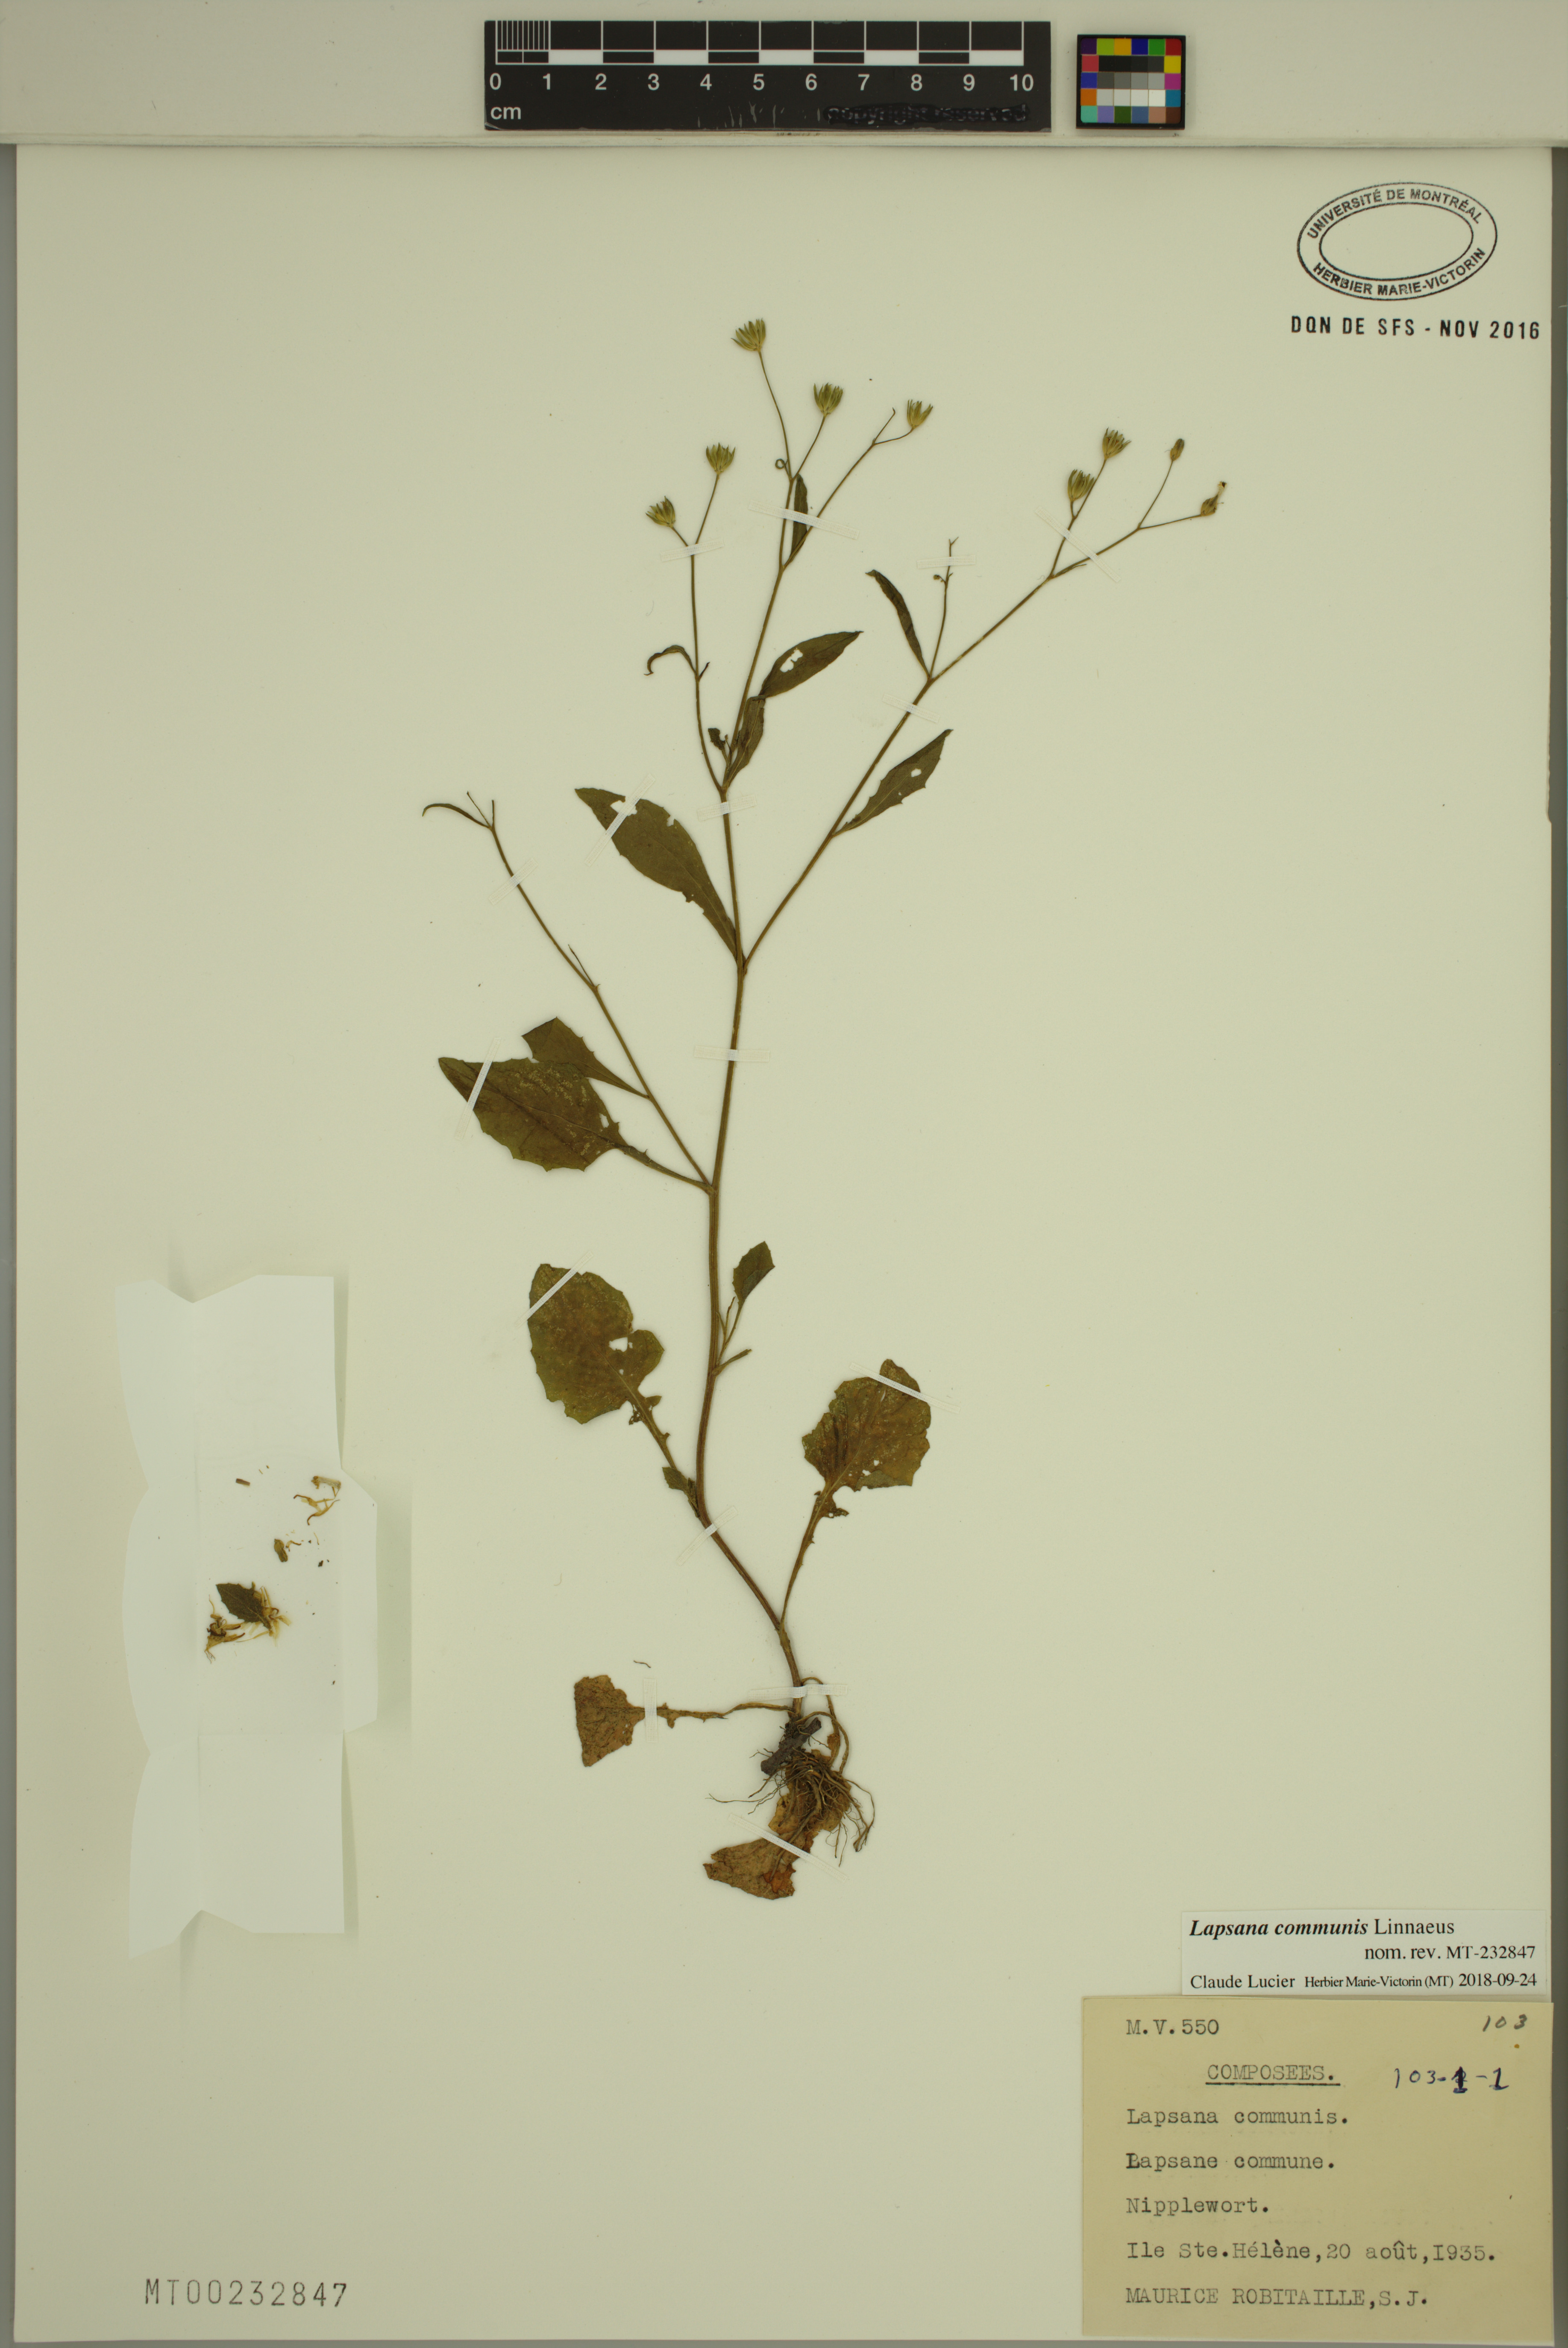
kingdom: Plantae
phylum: Tracheophyta
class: Magnoliopsida
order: Asterales
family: Asteraceae
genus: Lapsana
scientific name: Lapsana communis
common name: Nipplewort
